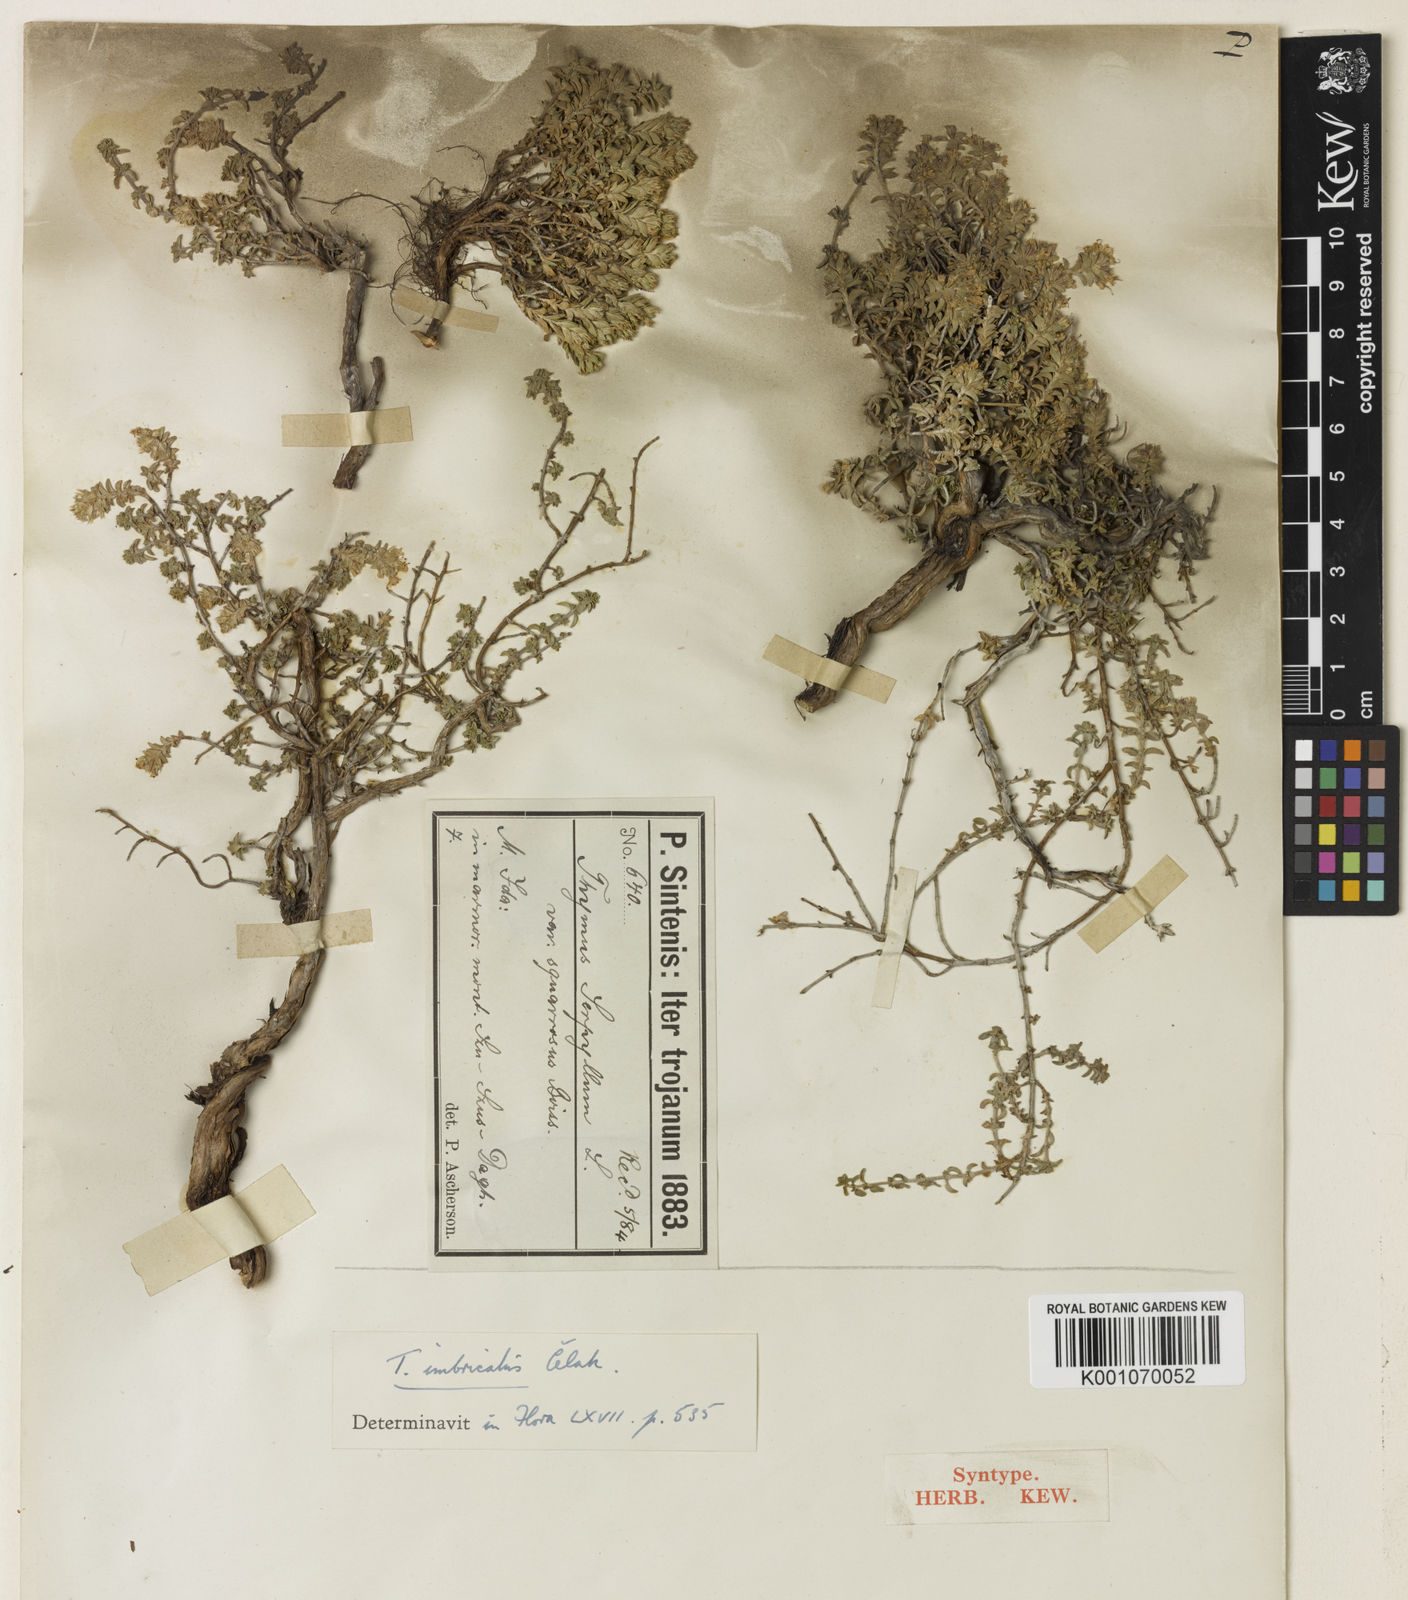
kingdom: Plantae
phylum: Tracheophyta
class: Magnoliopsida
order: Lamiales
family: Lamiaceae
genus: Thymus
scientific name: Thymus serpyllum
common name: Breckland thyme
